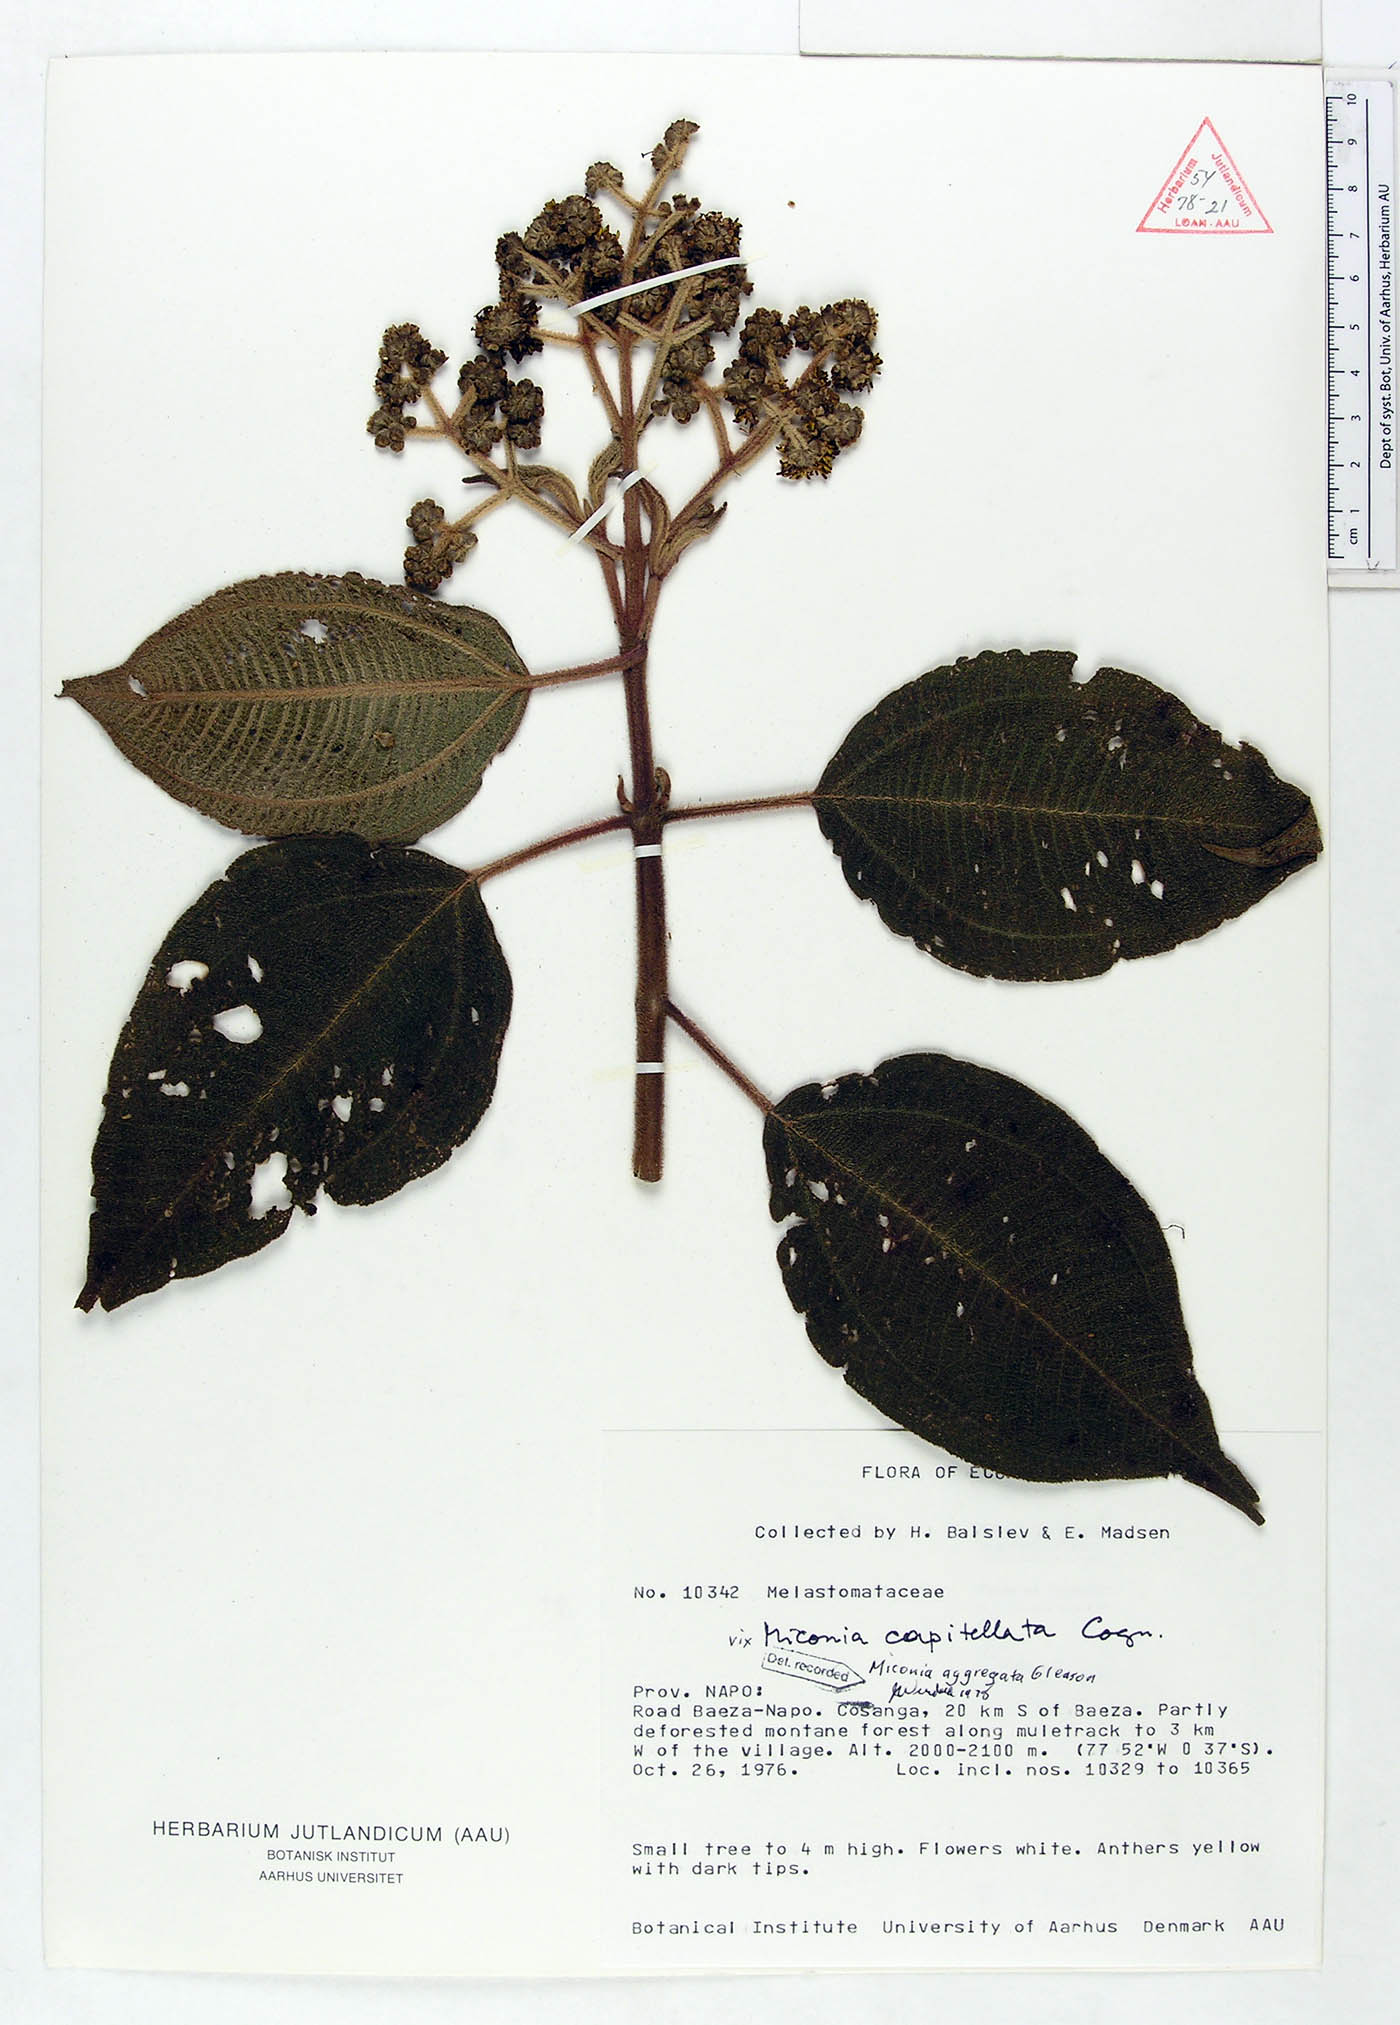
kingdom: Plantae
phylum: Tracheophyta
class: Magnoliopsida
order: Myrtales
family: Melastomataceae
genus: Miconia
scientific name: Miconia aggregata
